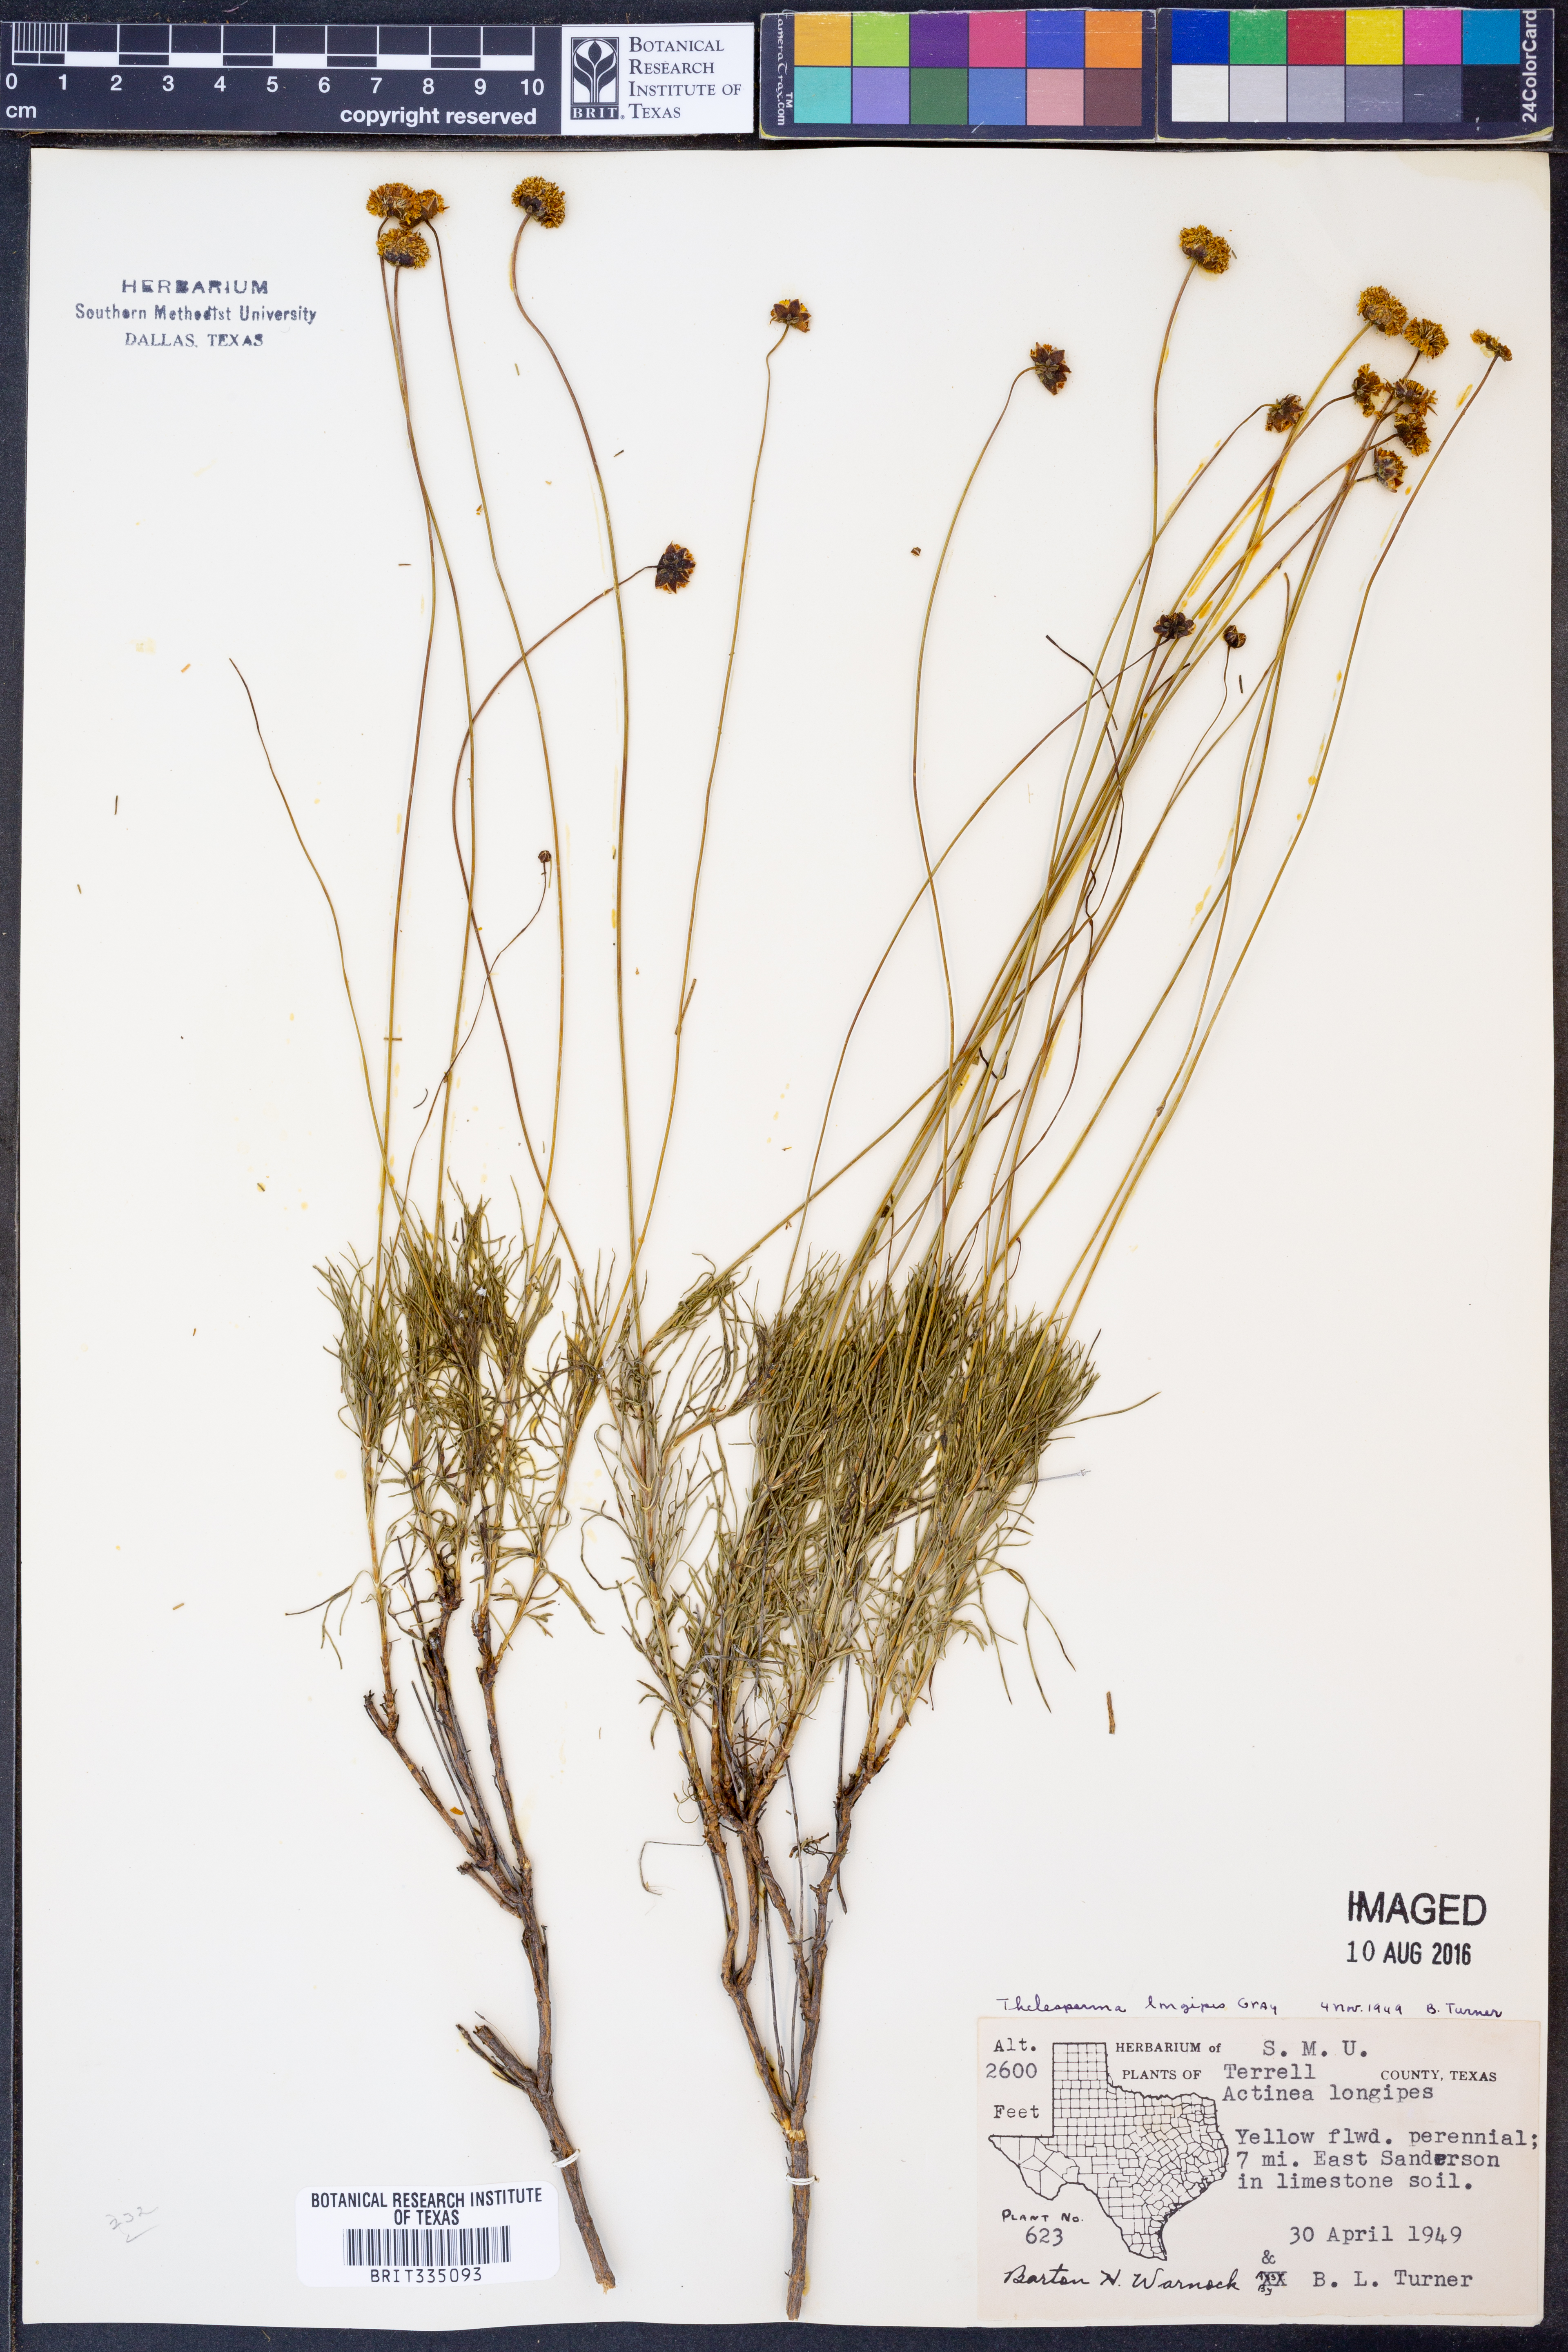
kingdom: Plantae
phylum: Tracheophyta
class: Magnoliopsida
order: Asterales
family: Asteraceae
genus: Thelesperma
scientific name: Thelesperma longipes
